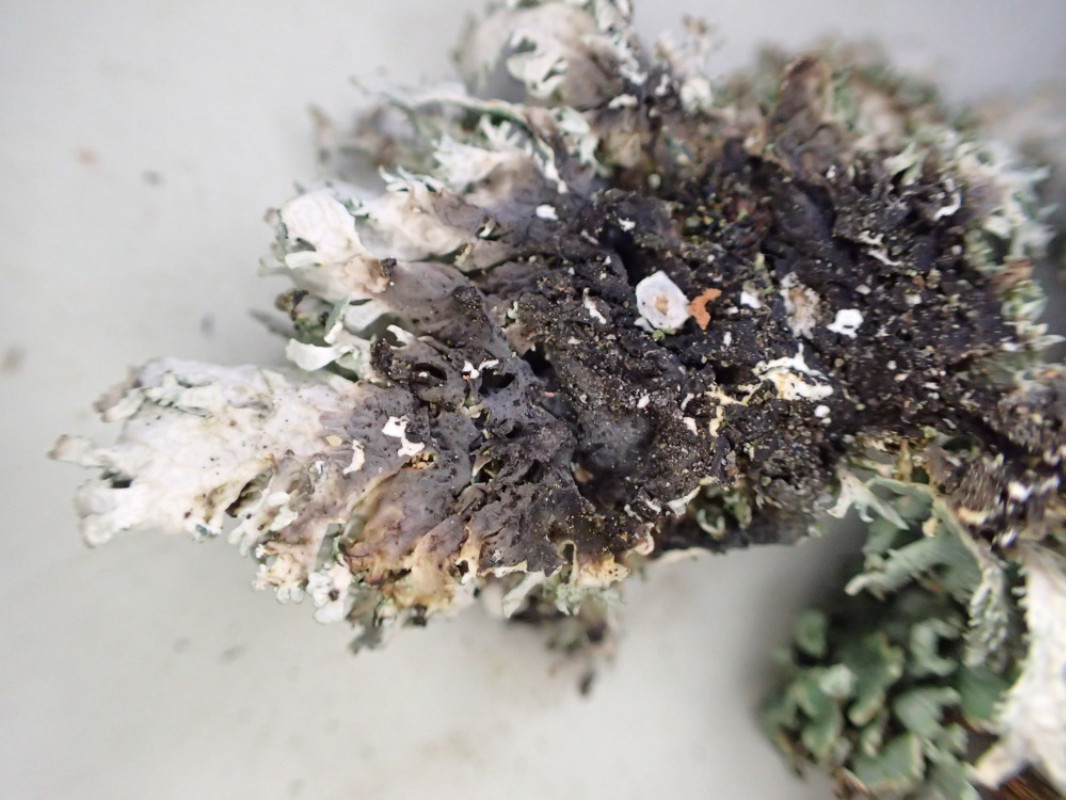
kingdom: Fungi
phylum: Ascomycota
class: Lecanoromycetes
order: Lecanorales
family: Parmeliaceae
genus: Pseudevernia
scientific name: Pseudevernia furfuracea
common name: grå fyrrelav
